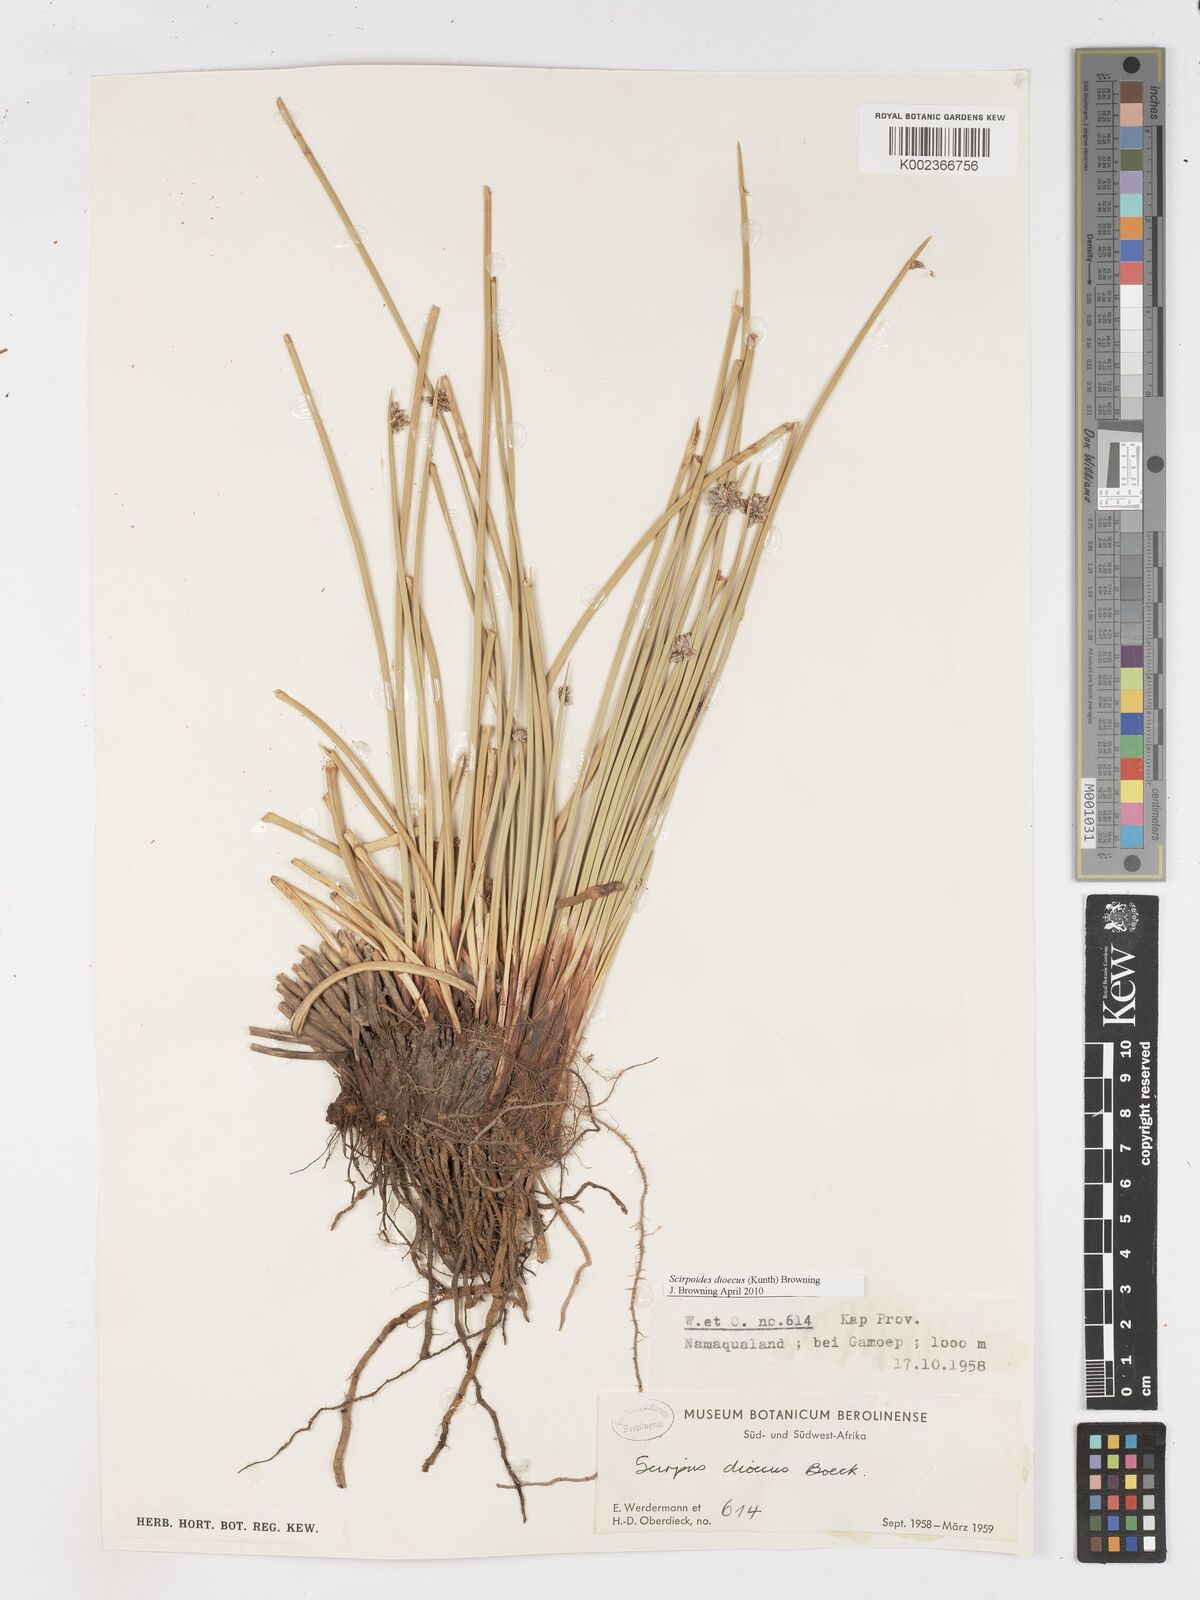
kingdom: Plantae
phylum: Tracheophyta
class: Liliopsida
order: Poales
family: Cyperaceae
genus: Afroscirpoides
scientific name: Afroscirpoides dioeca
